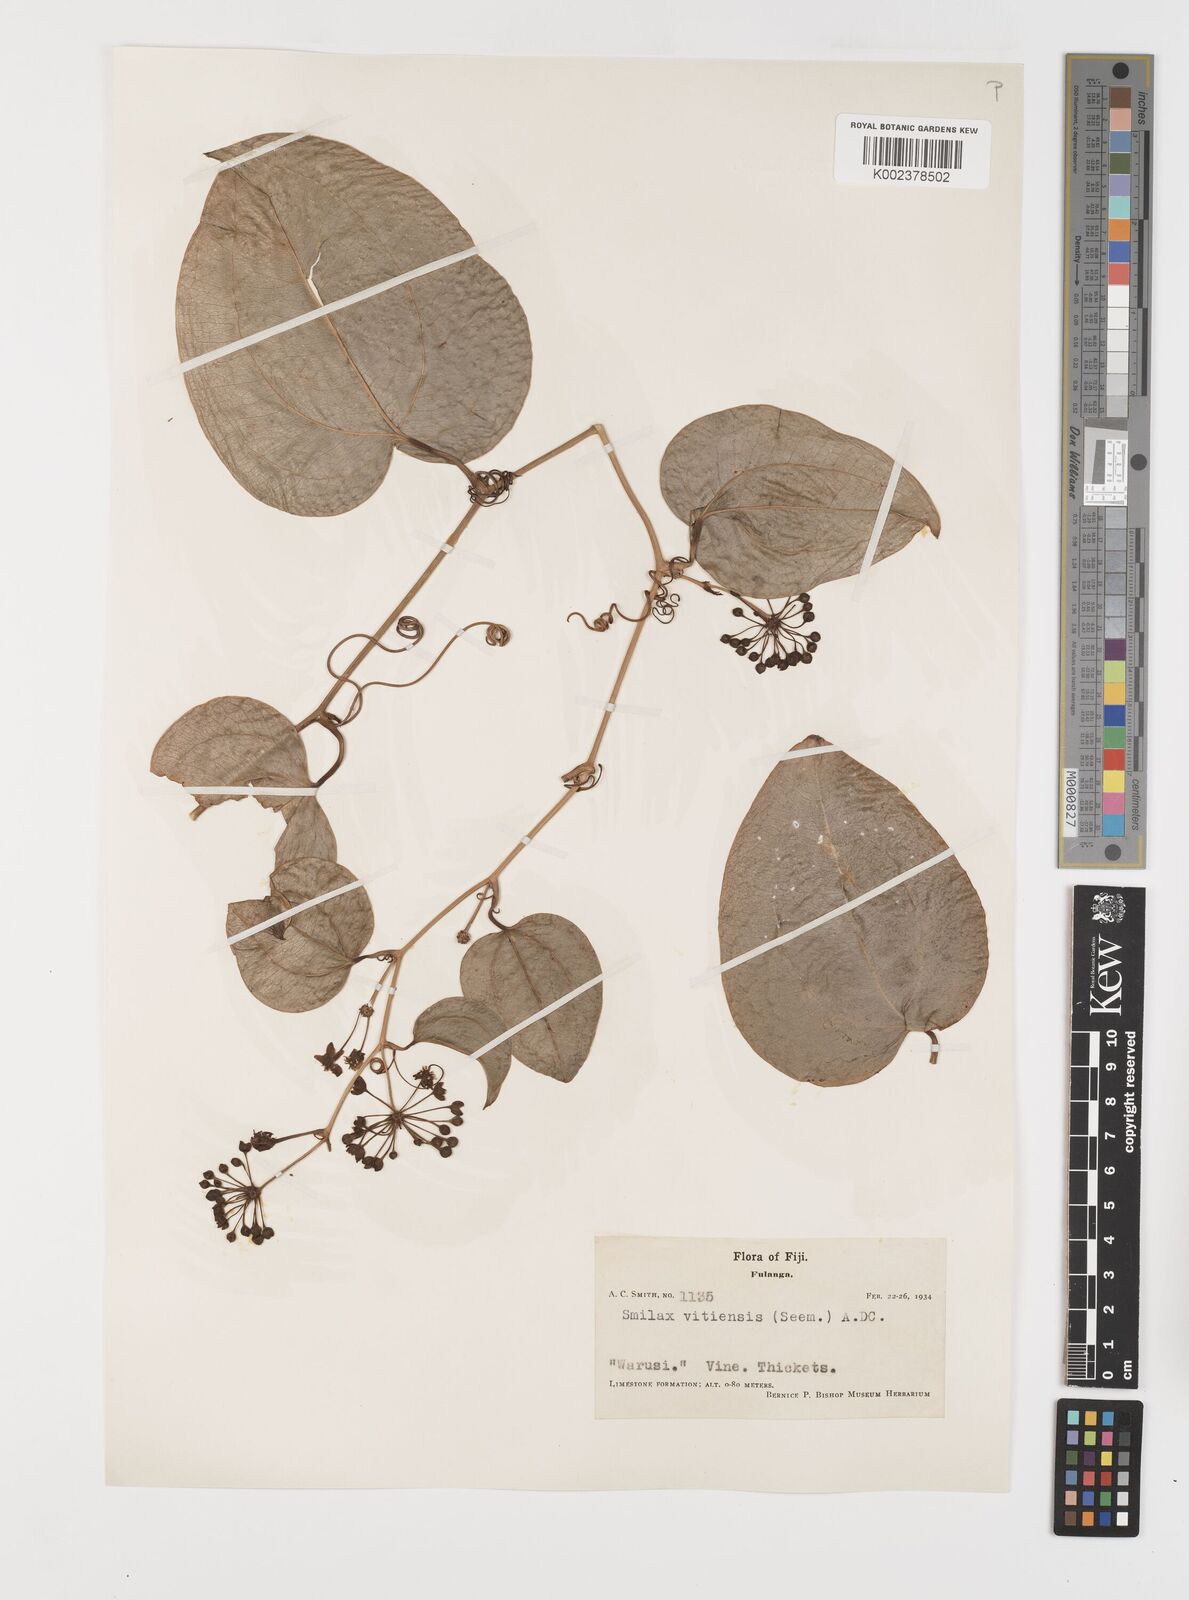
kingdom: Plantae
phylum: Tracheophyta
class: Liliopsida
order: Liliales
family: Smilacaceae
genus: Smilax
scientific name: Smilax vitiensis
